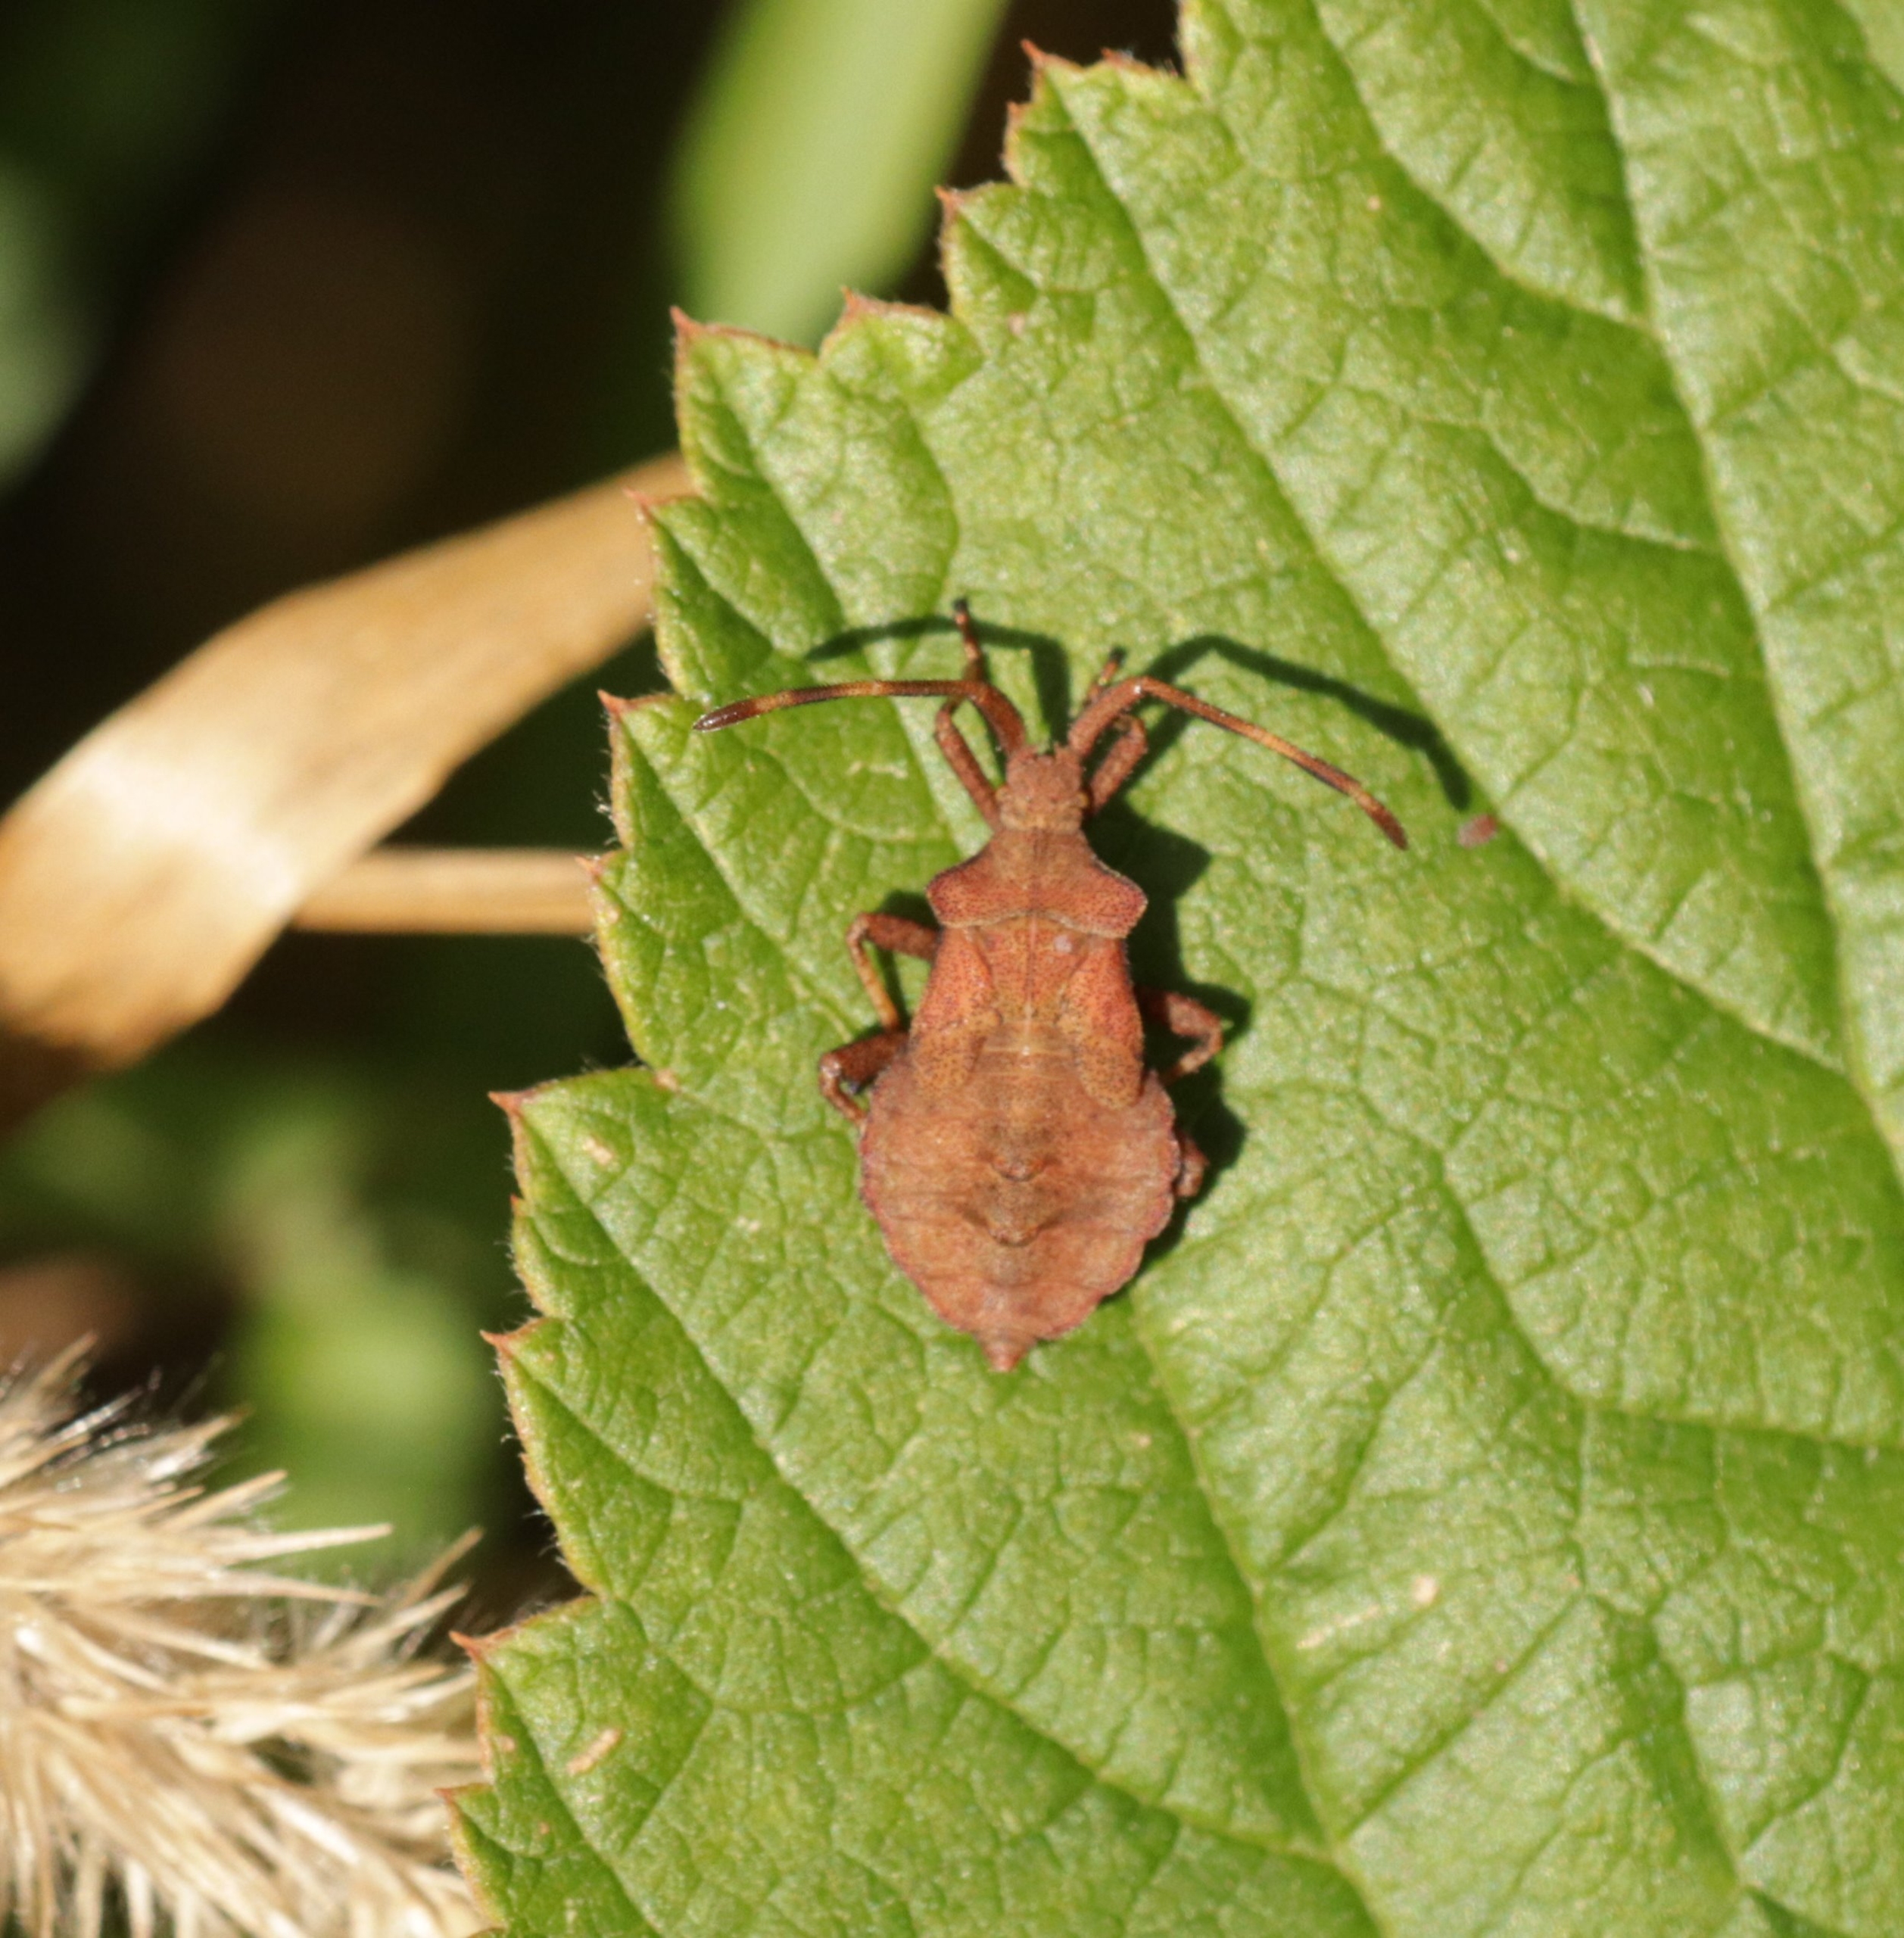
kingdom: Animalia
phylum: Arthropoda
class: Insecta
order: Hemiptera
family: Coreidae
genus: Coreus
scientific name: Coreus marginatus
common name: Skræppetæge
